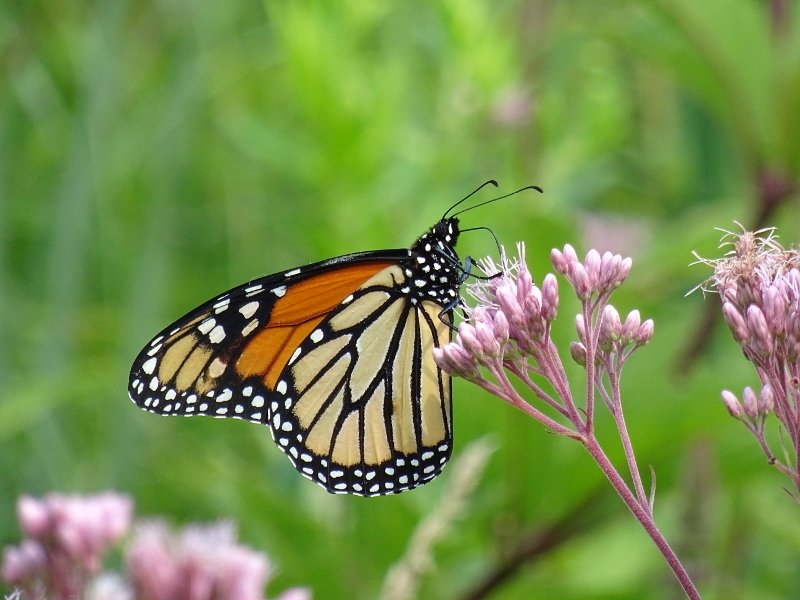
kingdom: Animalia
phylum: Arthropoda
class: Insecta
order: Lepidoptera
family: Nymphalidae
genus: Danaus
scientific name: Danaus plexippus
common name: Monarch
